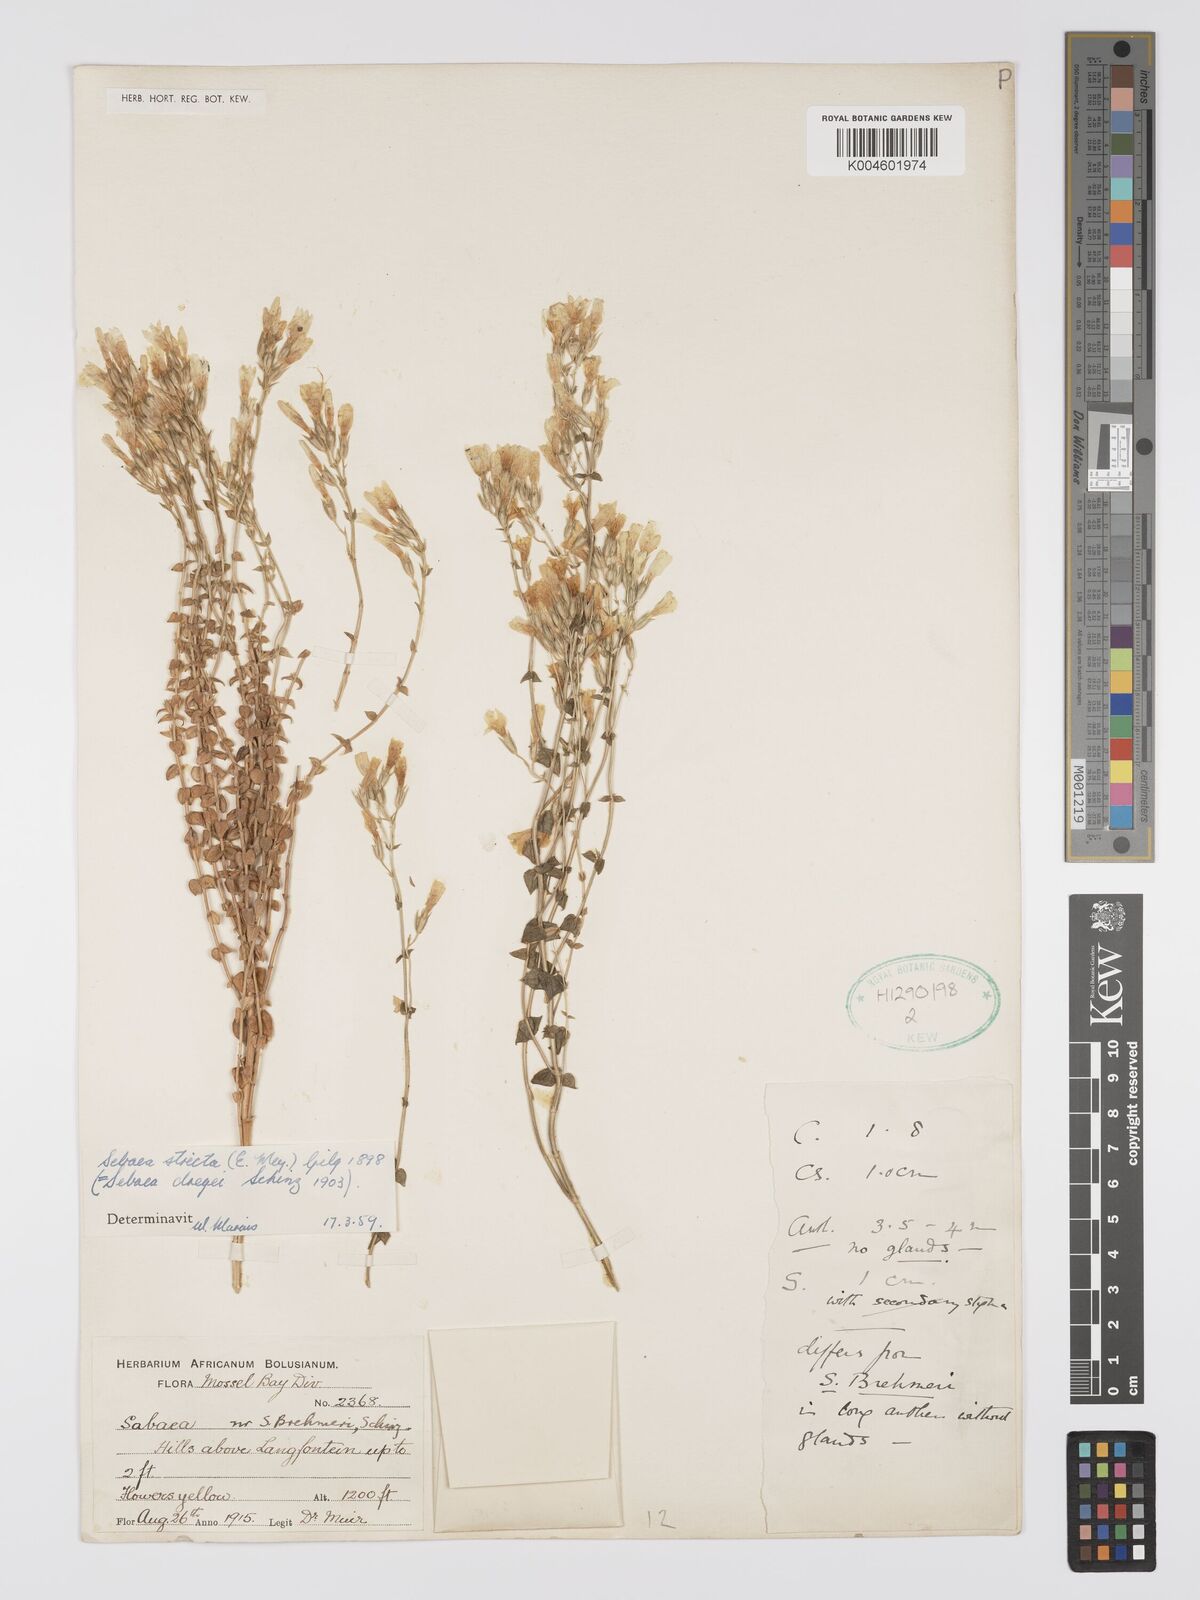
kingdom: Plantae
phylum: Tracheophyta
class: Magnoliopsida
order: Gentianales
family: Gentianaceae
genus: Sebaea
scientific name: Sebaea
